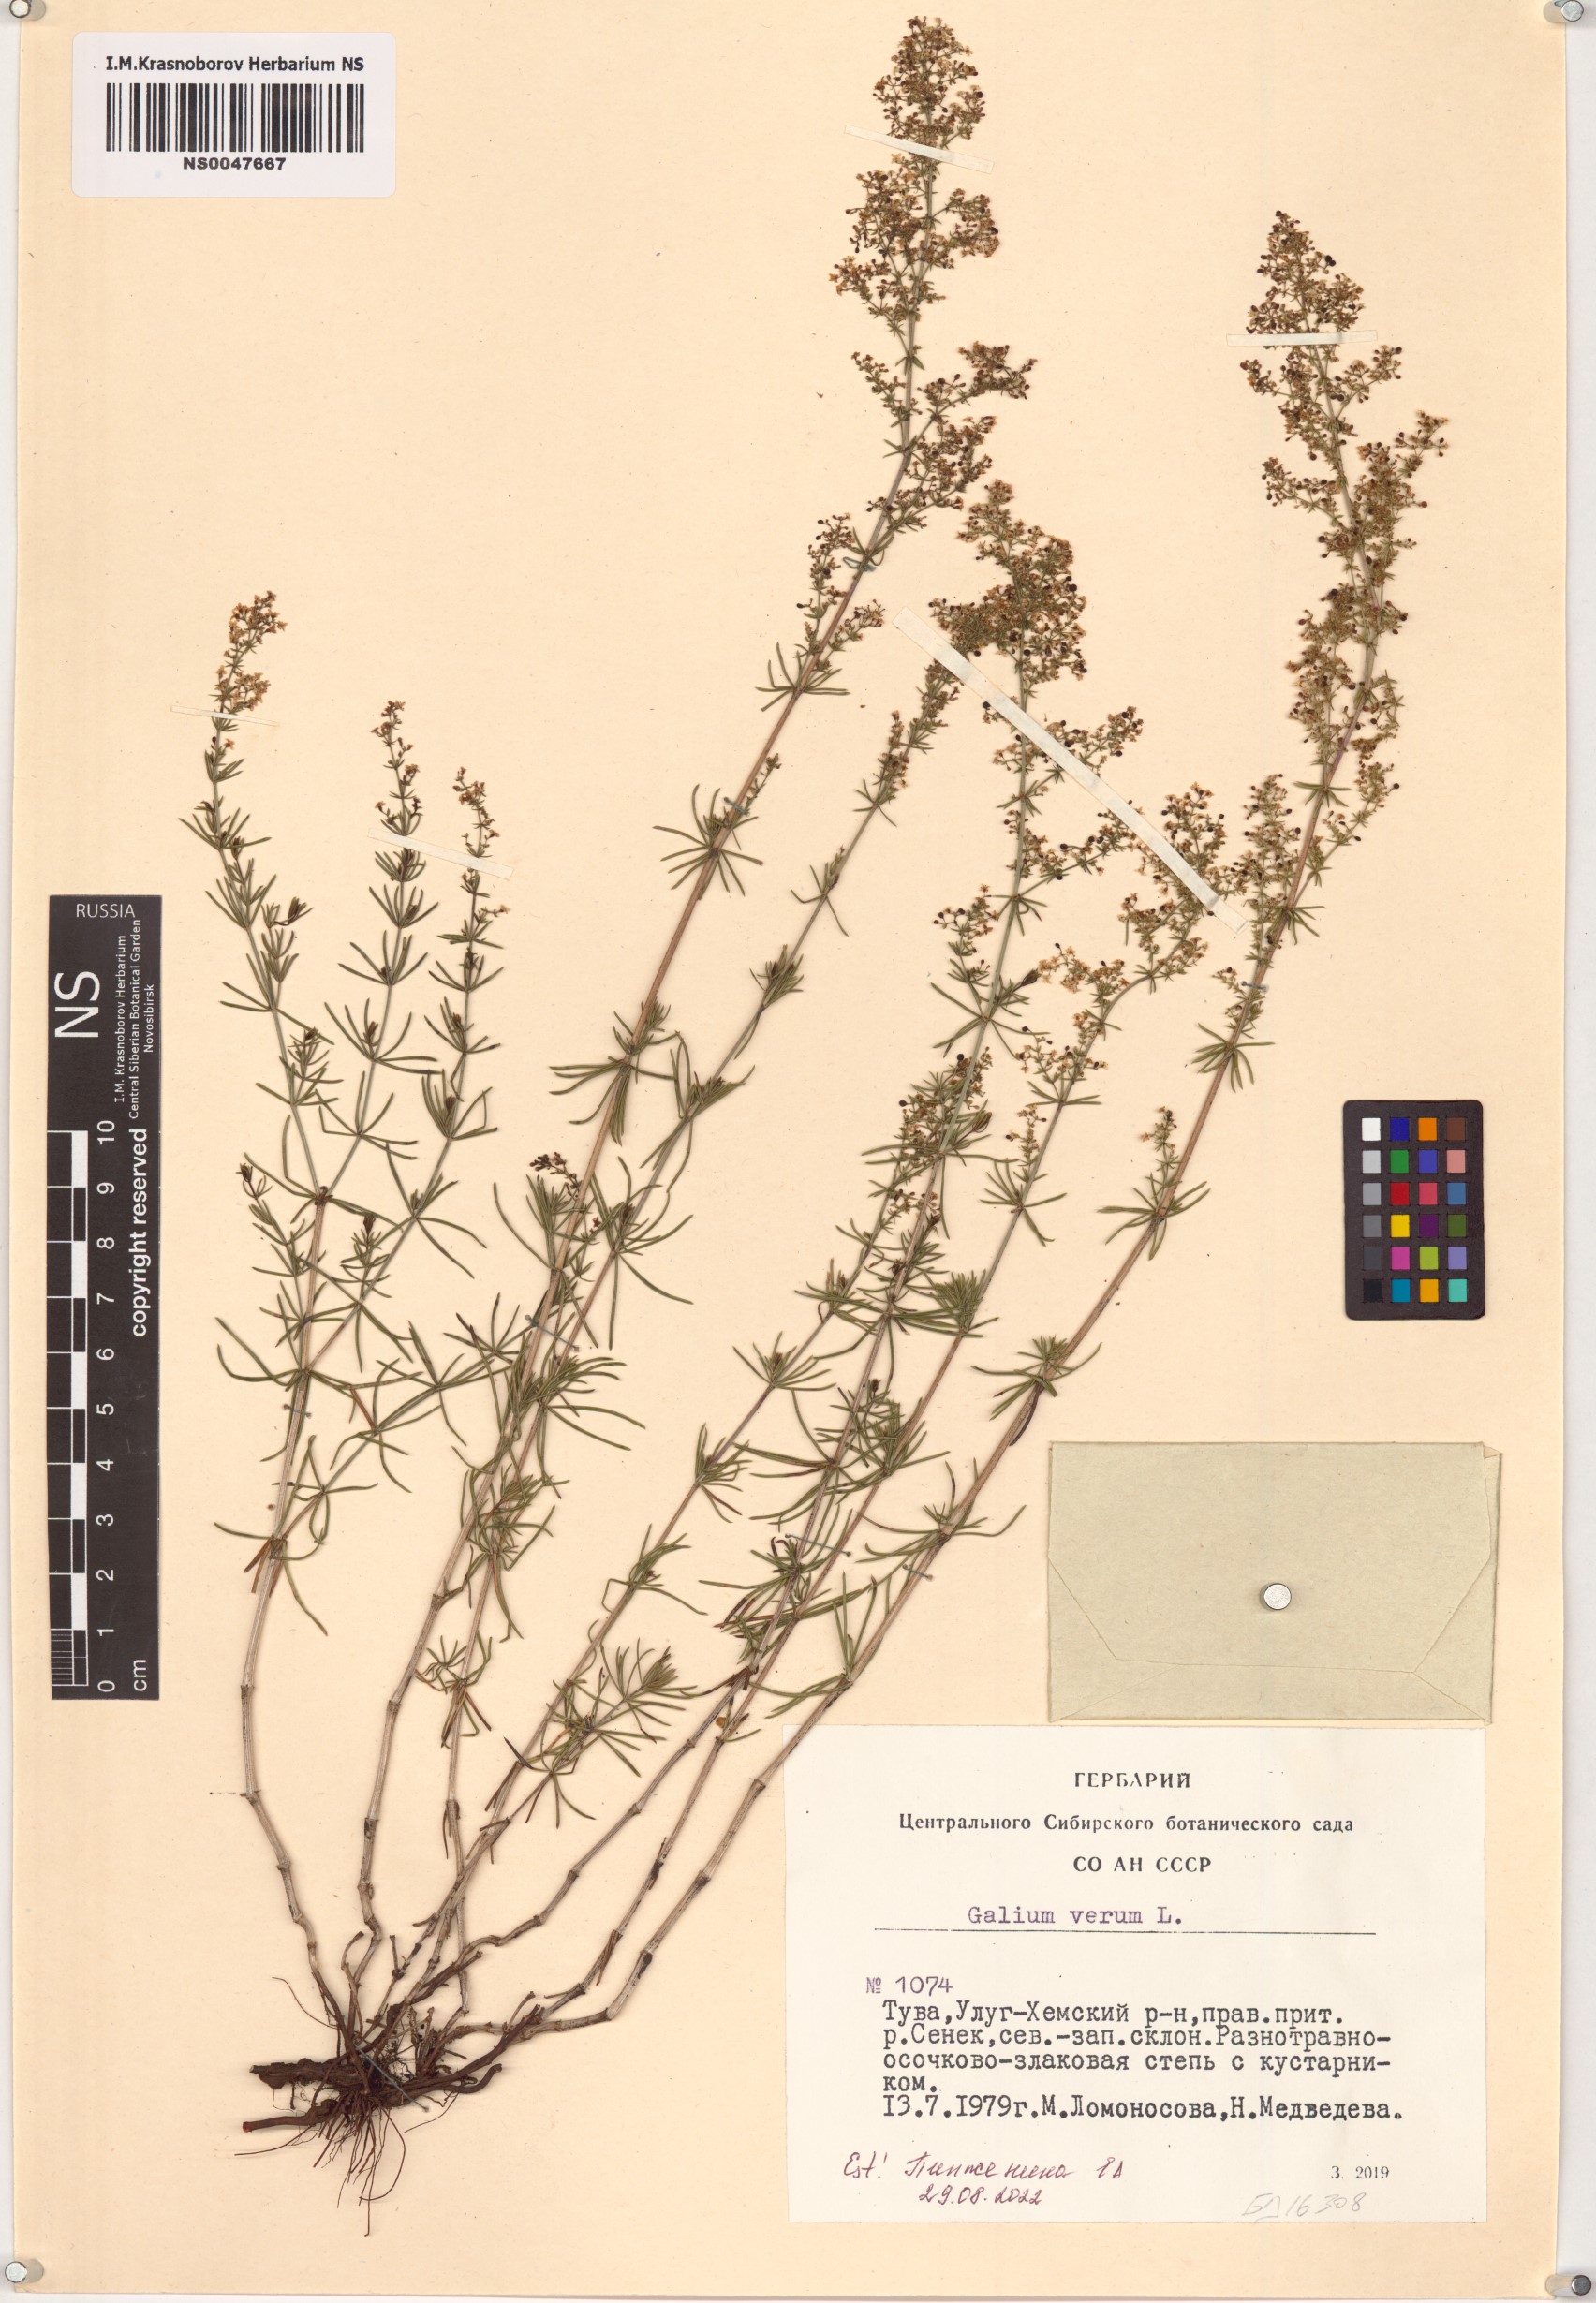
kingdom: Plantae
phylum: Tracheophyta
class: Magnoliopsida
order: Gentianales
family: Rubiaceae
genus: Galium
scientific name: Galium verum
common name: Lady's bedstraw
